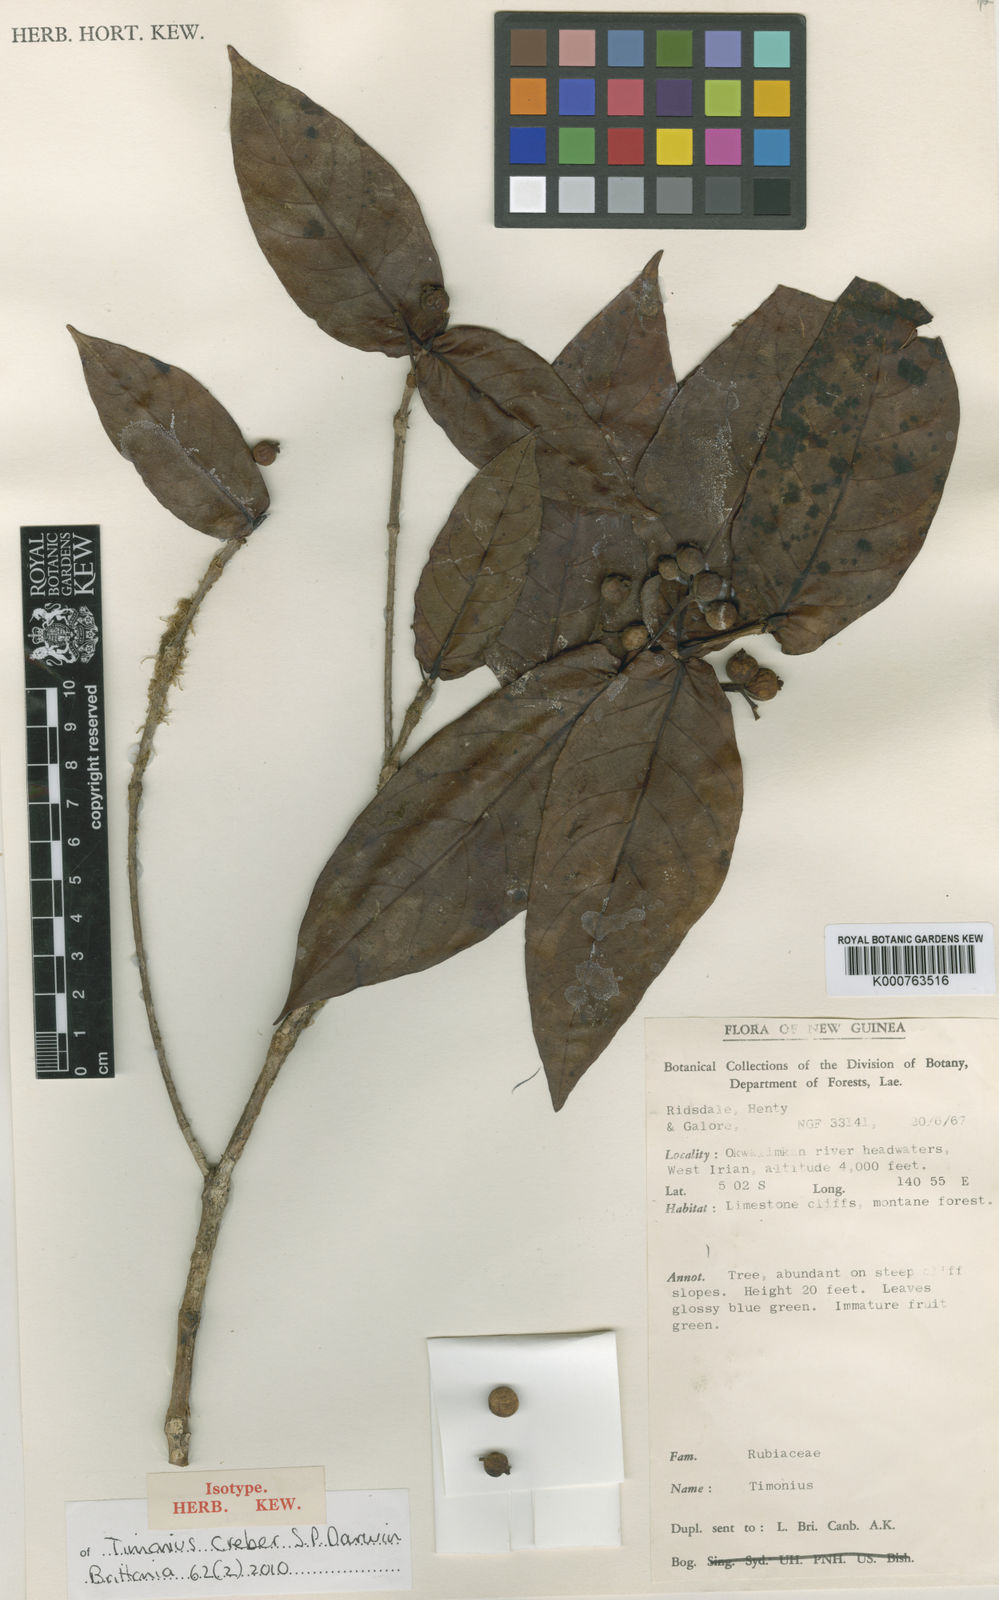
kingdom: Plantae
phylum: Tracheophyta
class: Magnoliopsida
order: Gentianales
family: Rubiaceae
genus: Timonius
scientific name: Timonius creber
